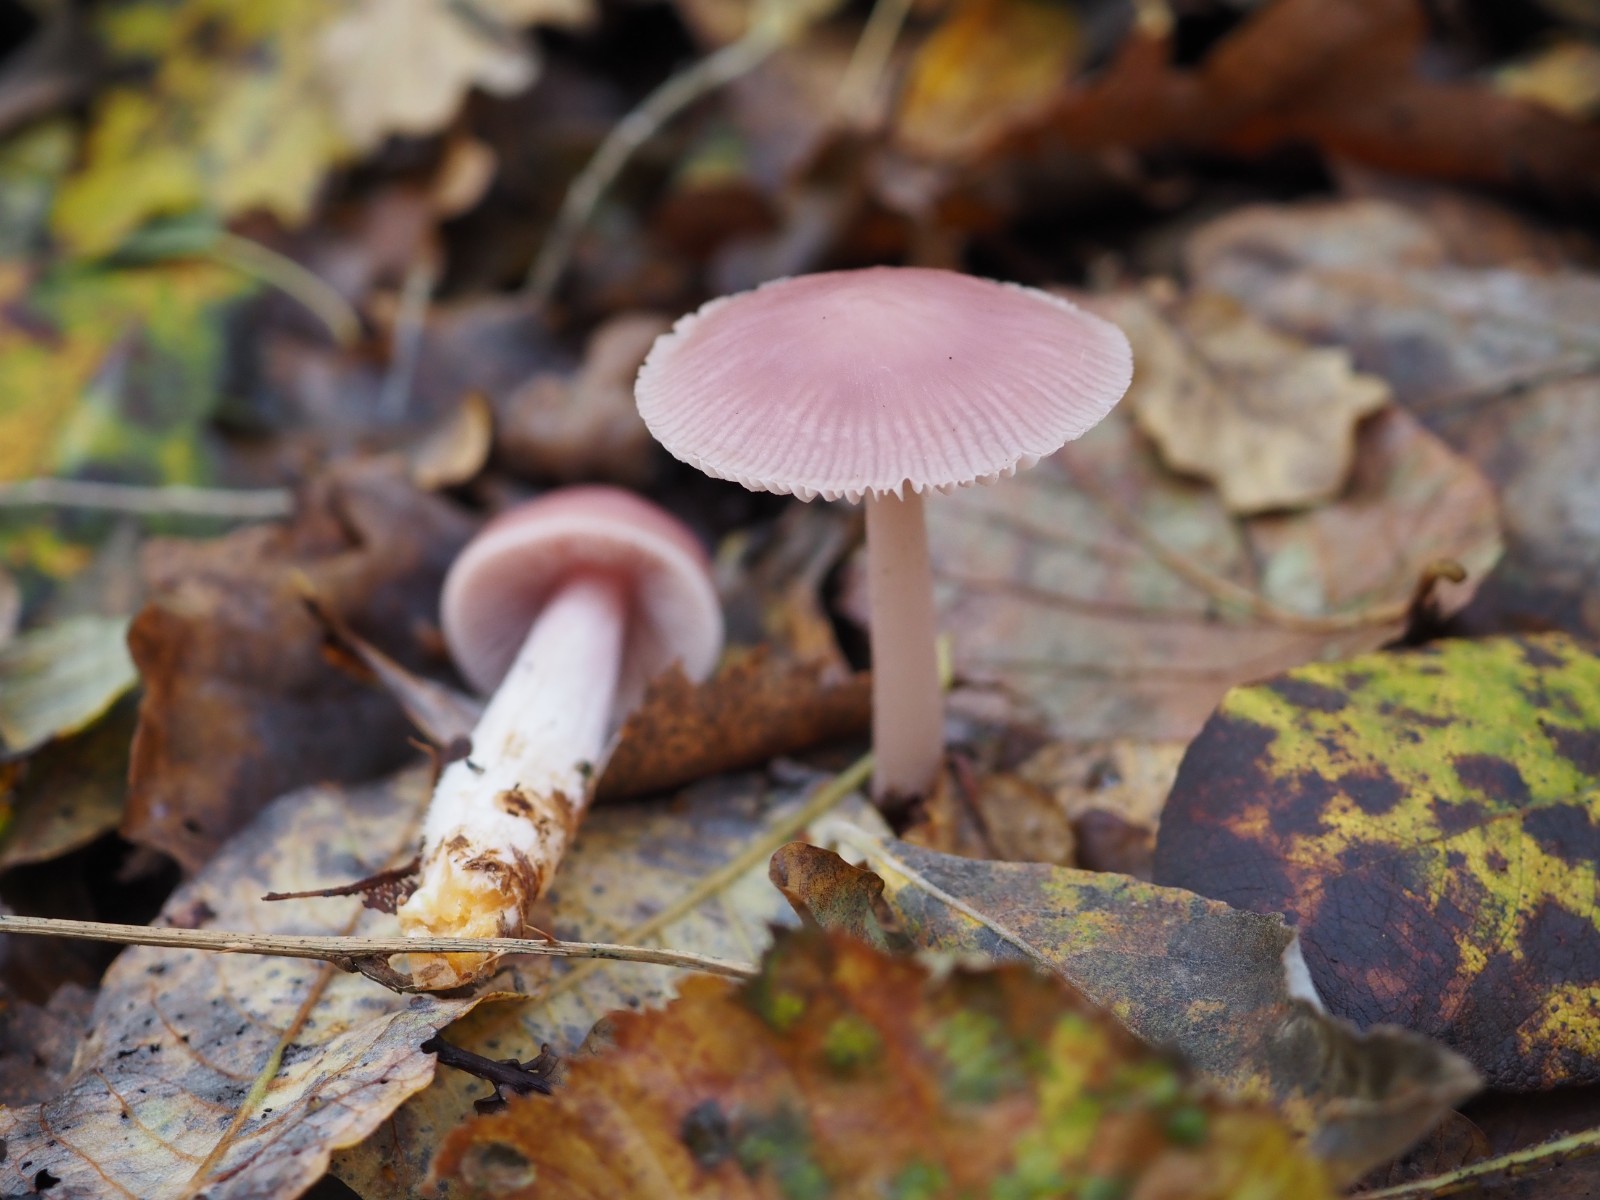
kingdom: Fungi
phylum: Basidiomycota
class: Agaricomycetes
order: Agaricales
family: Mycenaceae
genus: Mycena
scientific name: Mycena rosea
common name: rosa huesvamp
